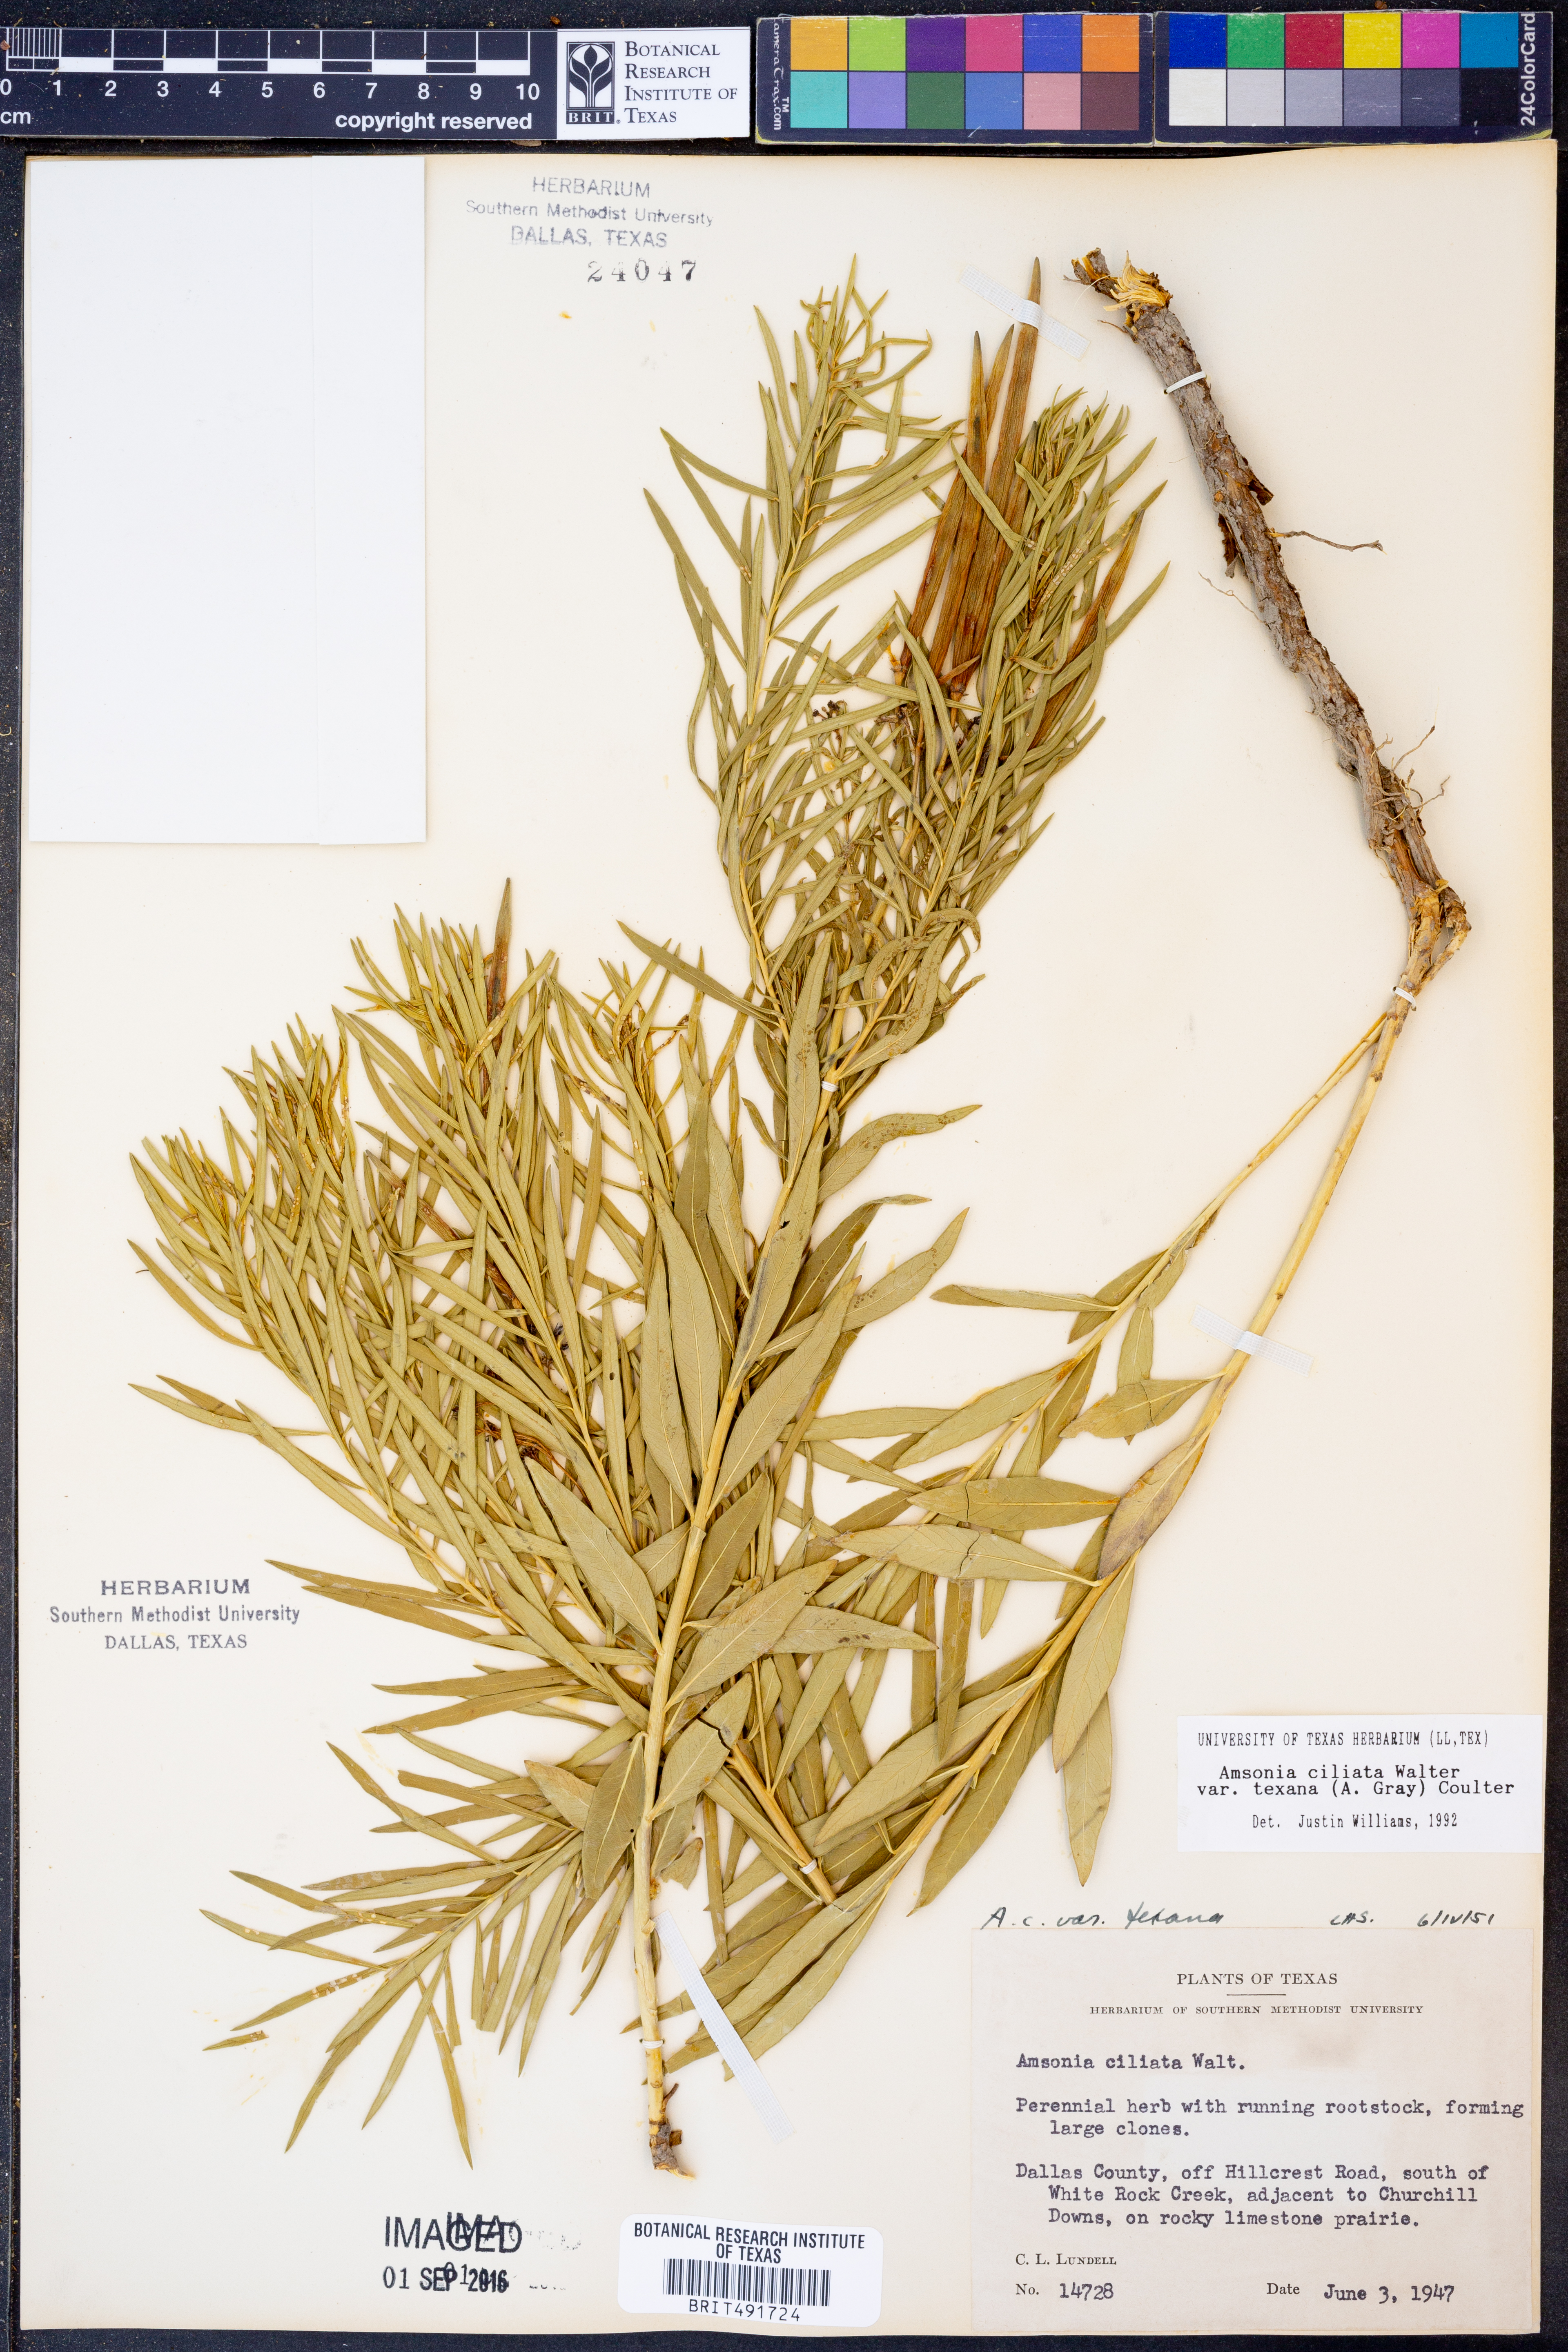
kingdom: Plantae
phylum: Tracheophyta
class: Magnoliopsida
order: Gentianales
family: Apocynaceae
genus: Amsonia
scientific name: Amsonia ciliata
